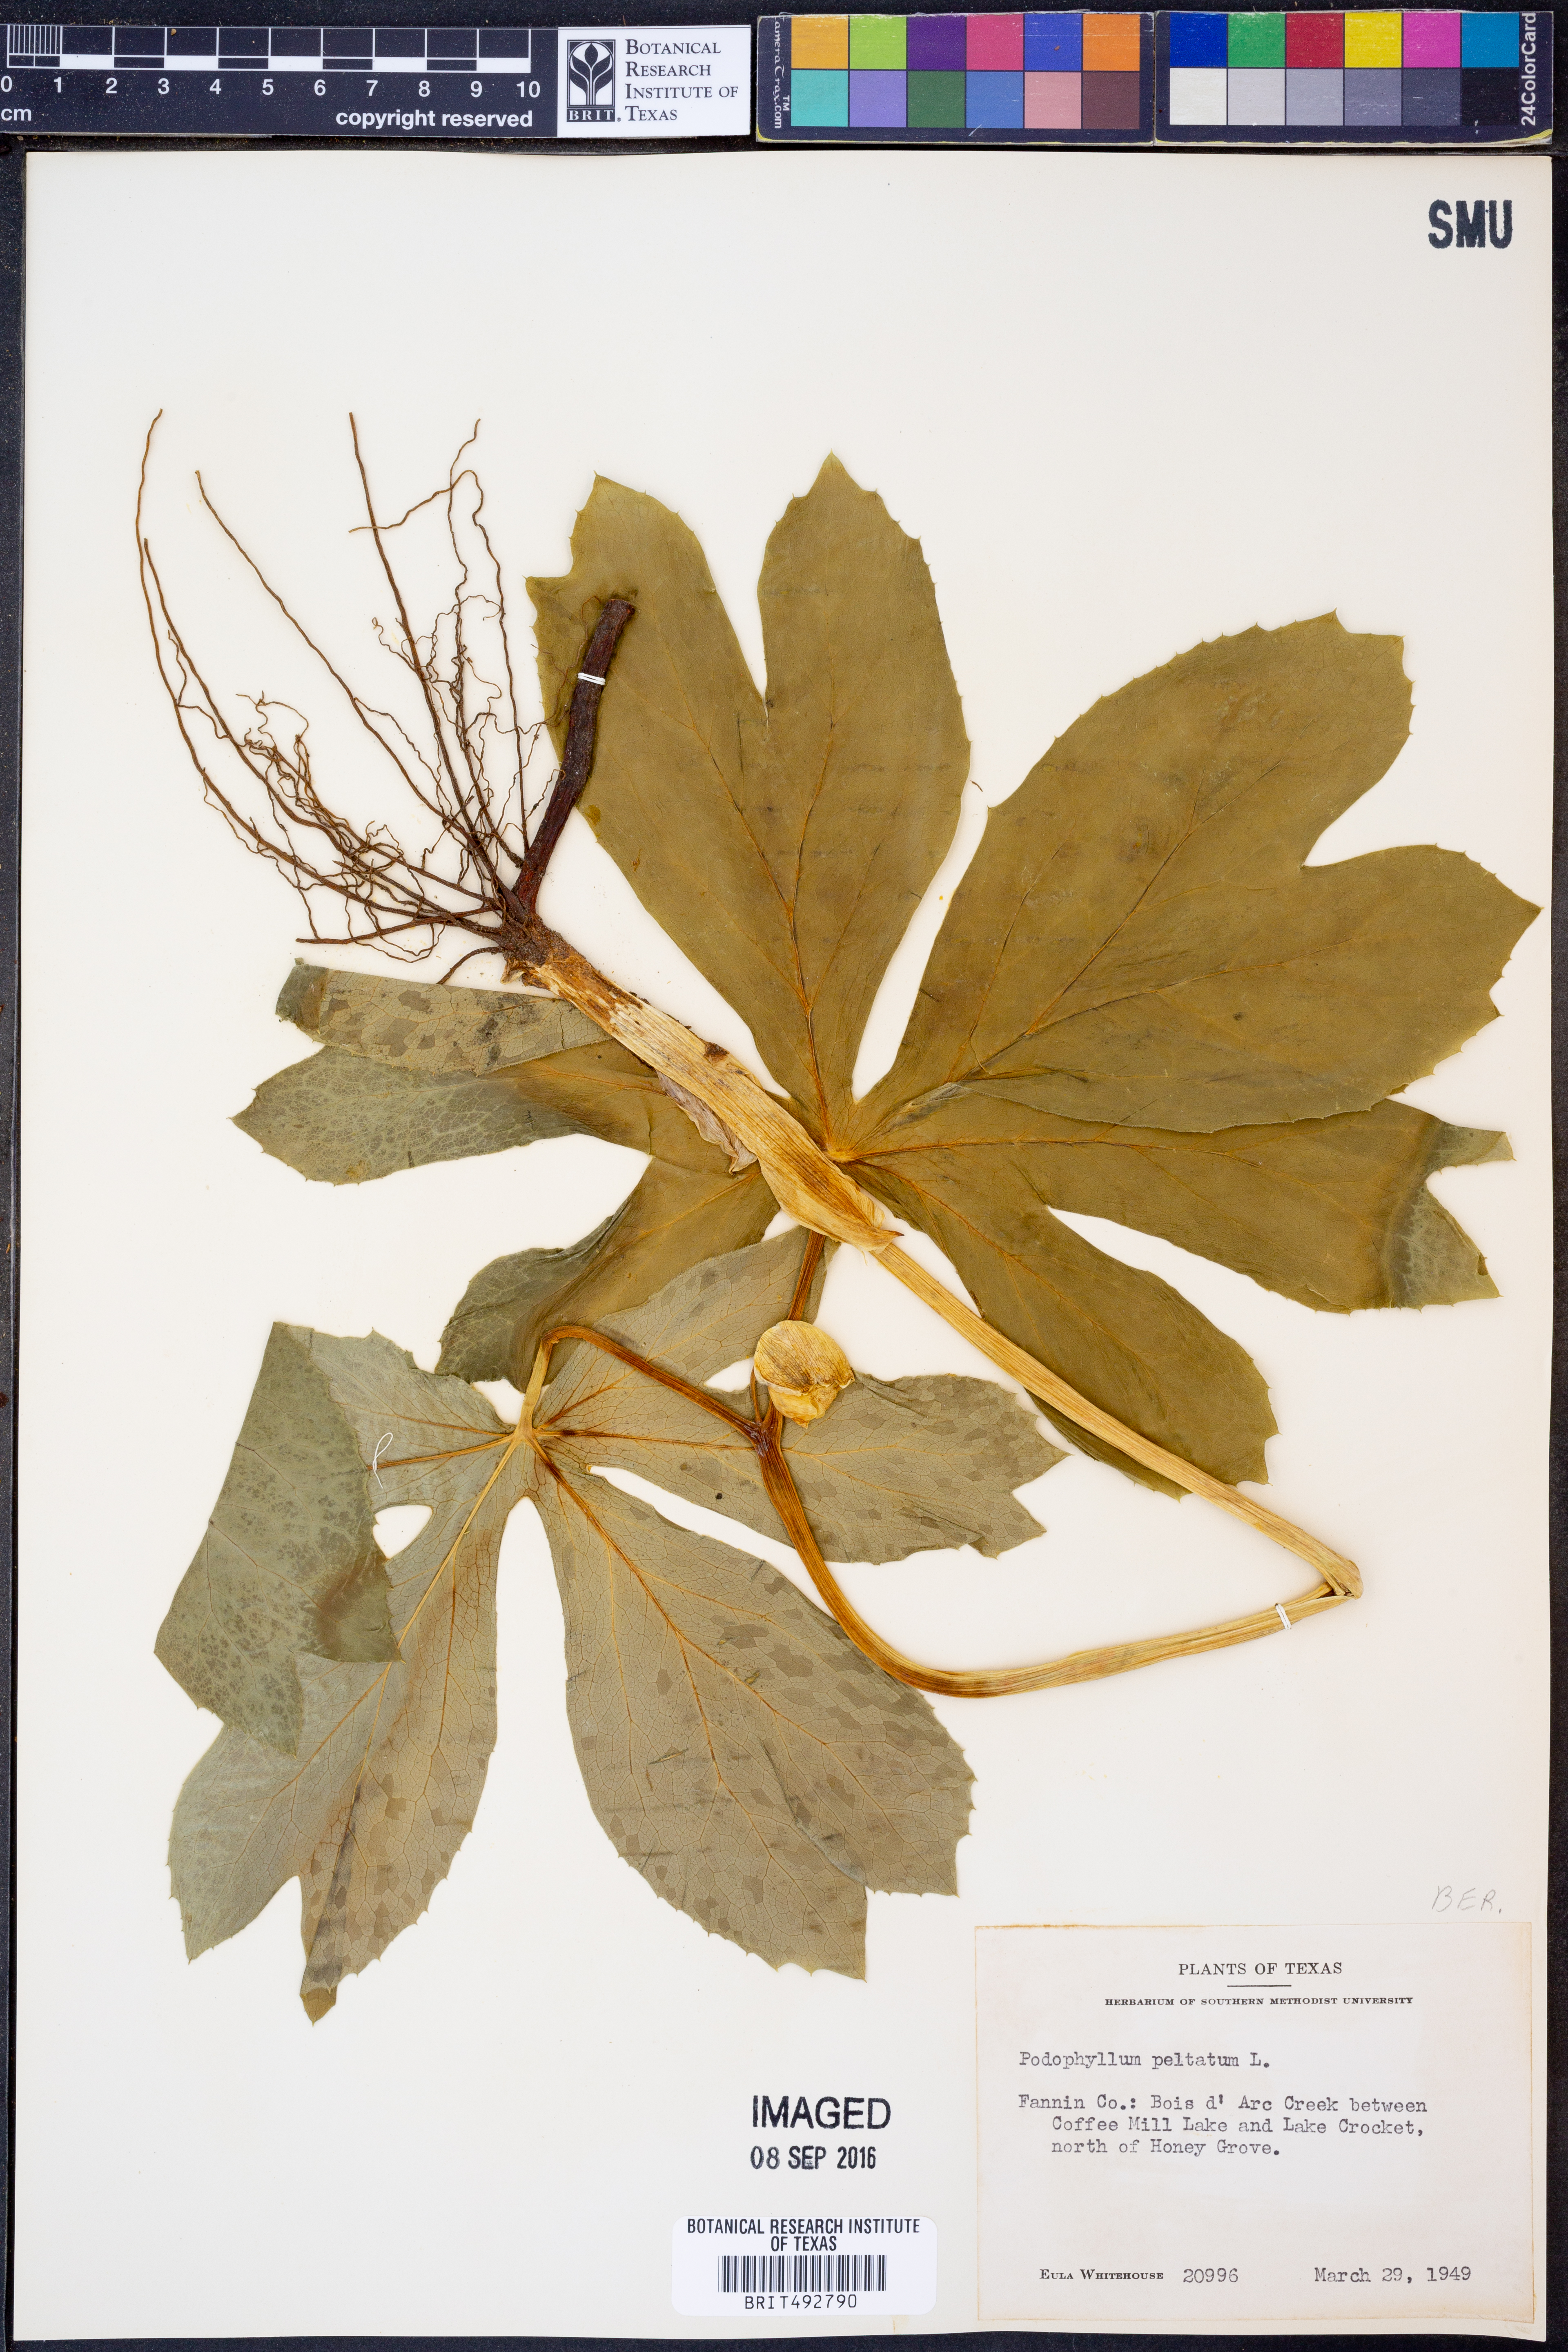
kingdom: Plantae
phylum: Tracheophyta
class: Magnoliopsida
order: Ranunculales
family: Berberidaceae
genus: Podophyllum
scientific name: Podophyllum peltatum
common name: Wild mandrake
